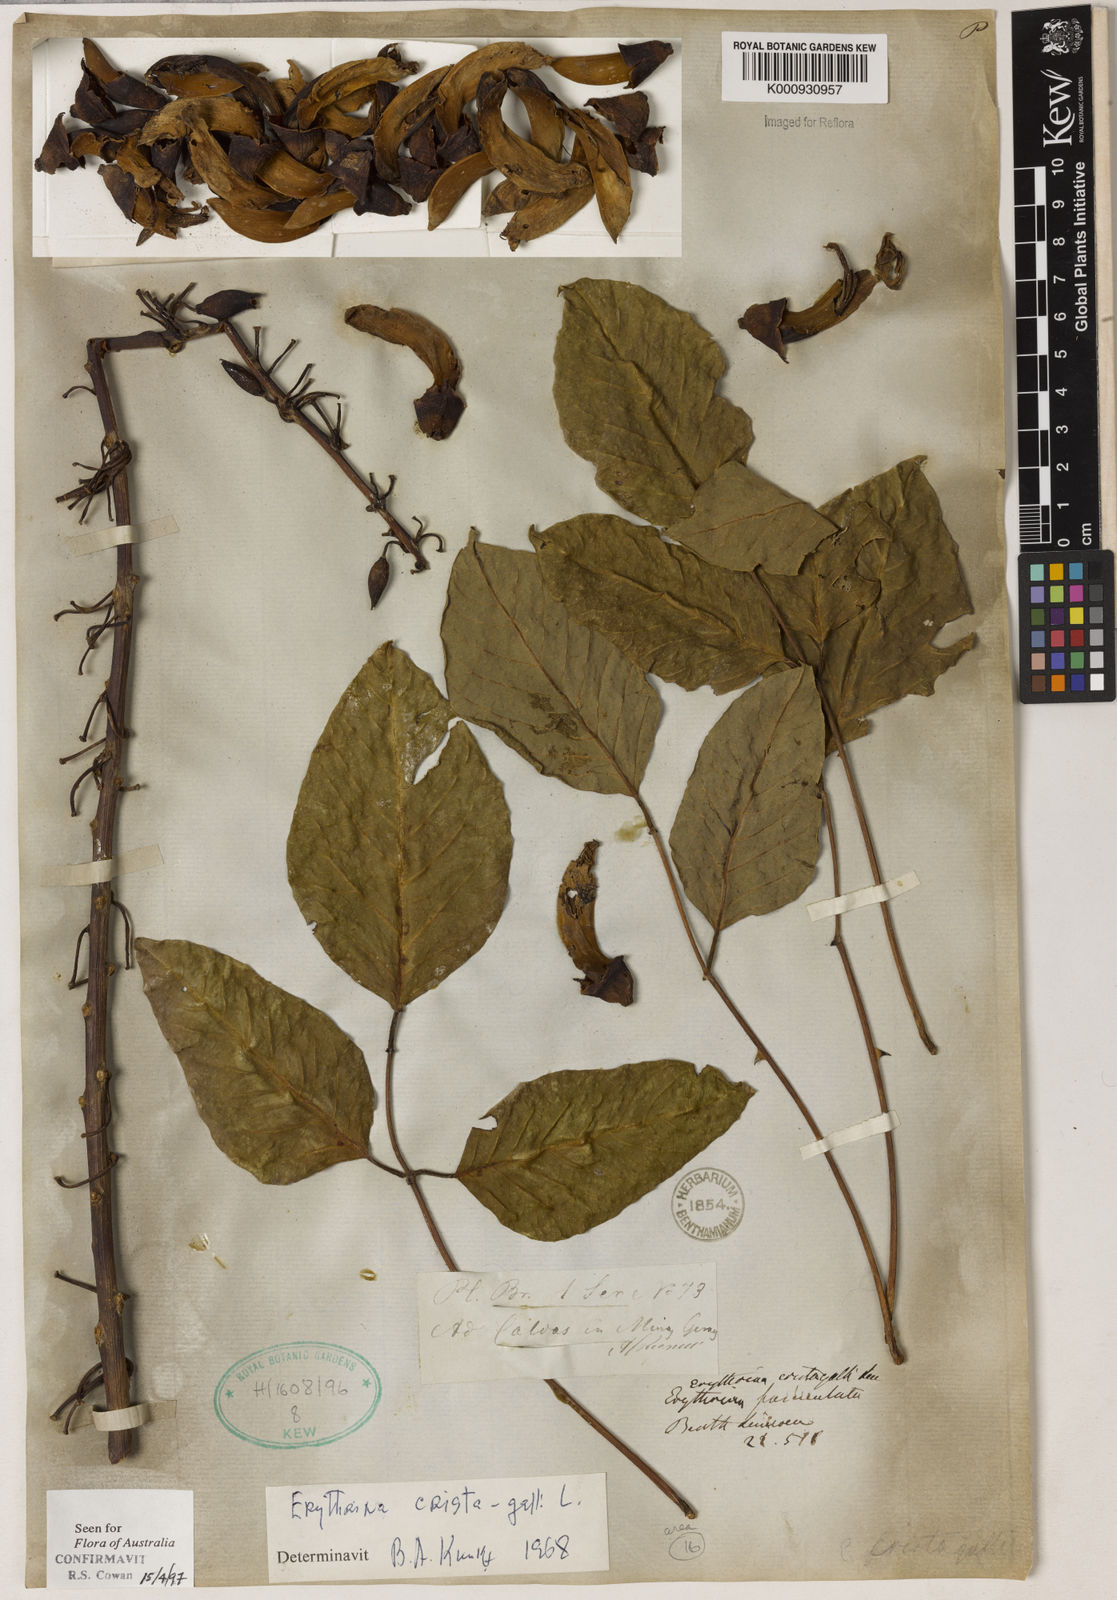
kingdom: Plantae
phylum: Tracheophyta
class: Magnoliopsida
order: Fabales
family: Fabaceae
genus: Erythrina
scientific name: Erythrina crista-galli
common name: Cockspur coral tree
